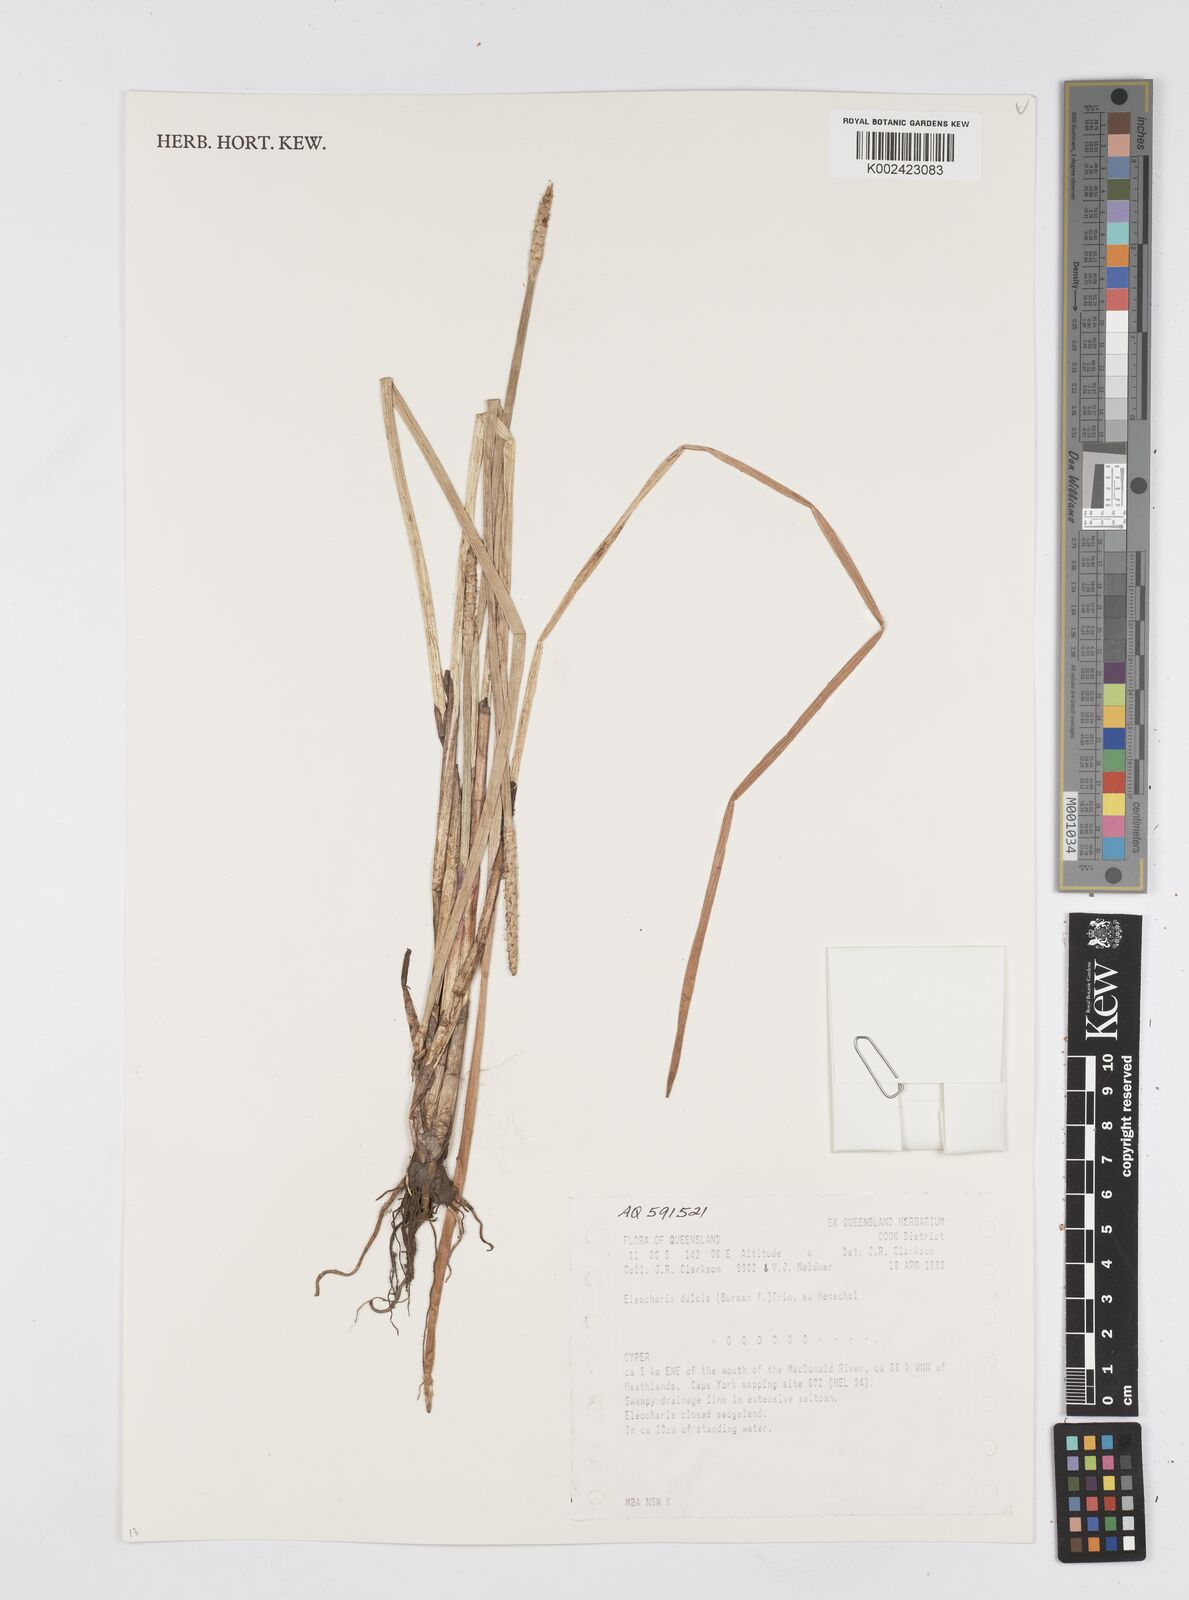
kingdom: Plantae
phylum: Tracheophyta
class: Liliopsida
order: Poales
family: Cyperaceae
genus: Eleocharis
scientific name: Eleocharis dulcis
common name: Chinese water chestnut
